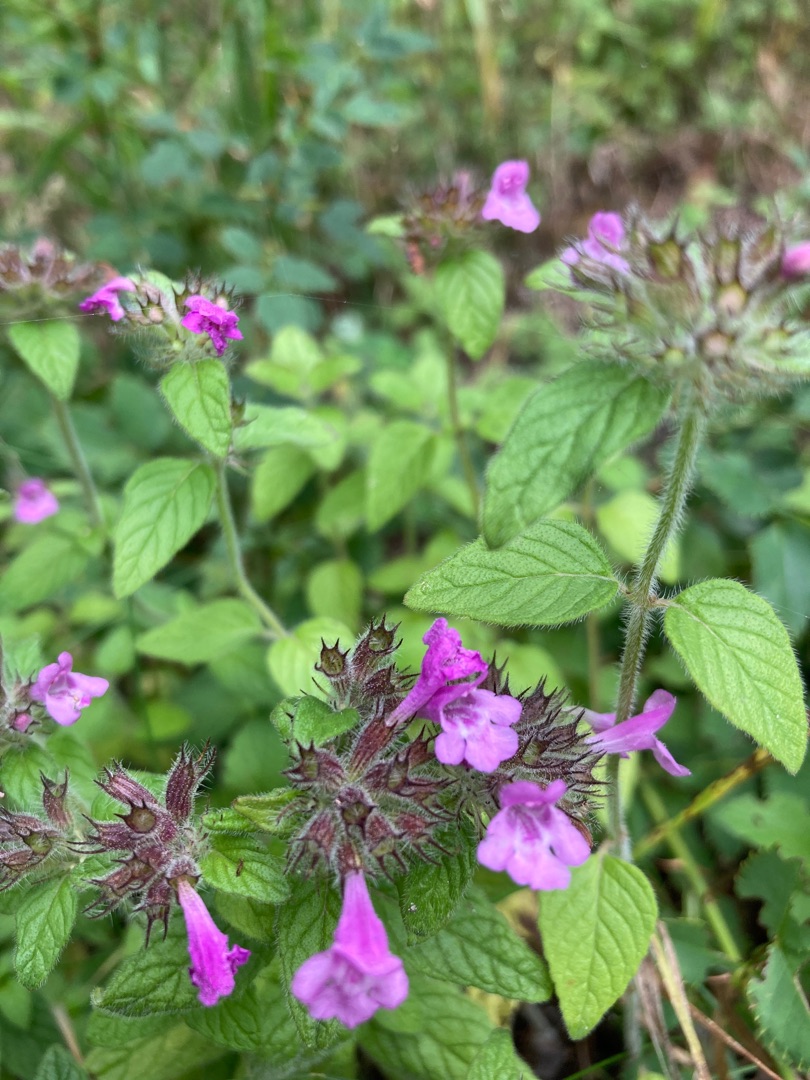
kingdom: Plantae
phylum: Tracheophyta
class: Magnoliopsida
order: Lamiales
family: Lamiaceae
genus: Clinopodium
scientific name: Clinopodium vulgare
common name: Kransbørste
